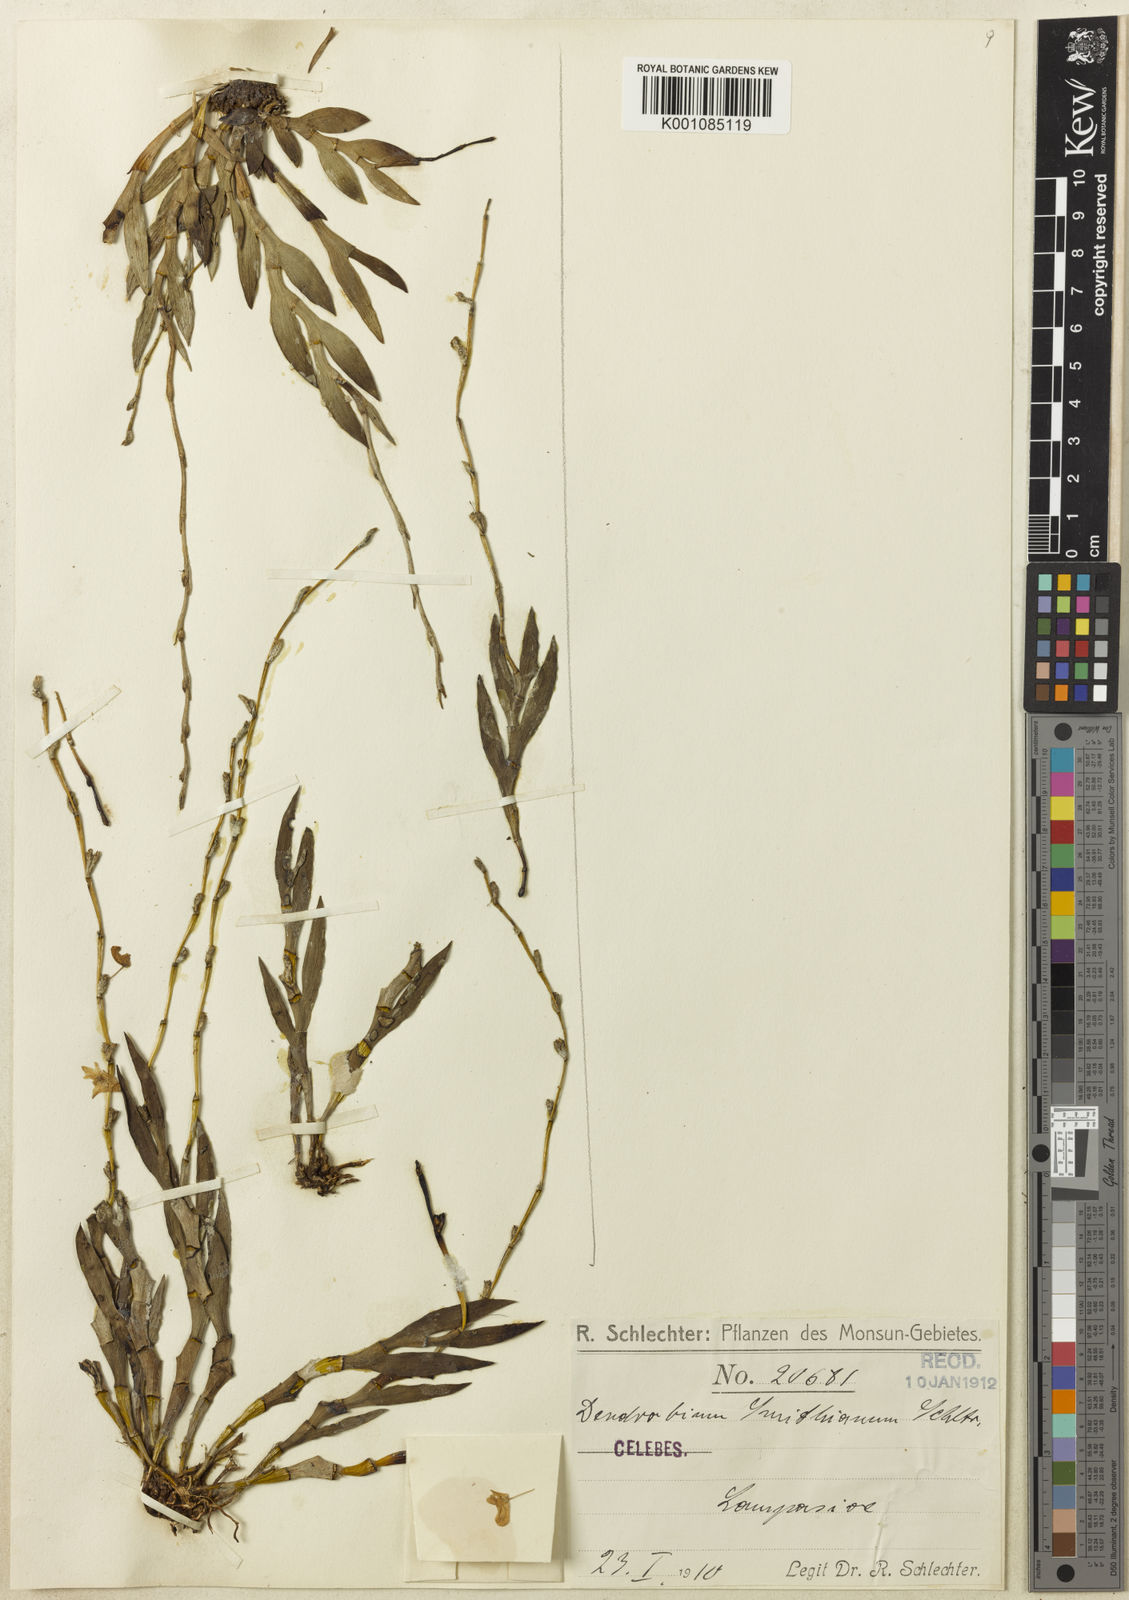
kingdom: Plantae
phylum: Tracheophyta
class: Liliopsida
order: Asparagales
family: Orchidaceae
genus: Dendrobium
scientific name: Dendrobium smithianum
